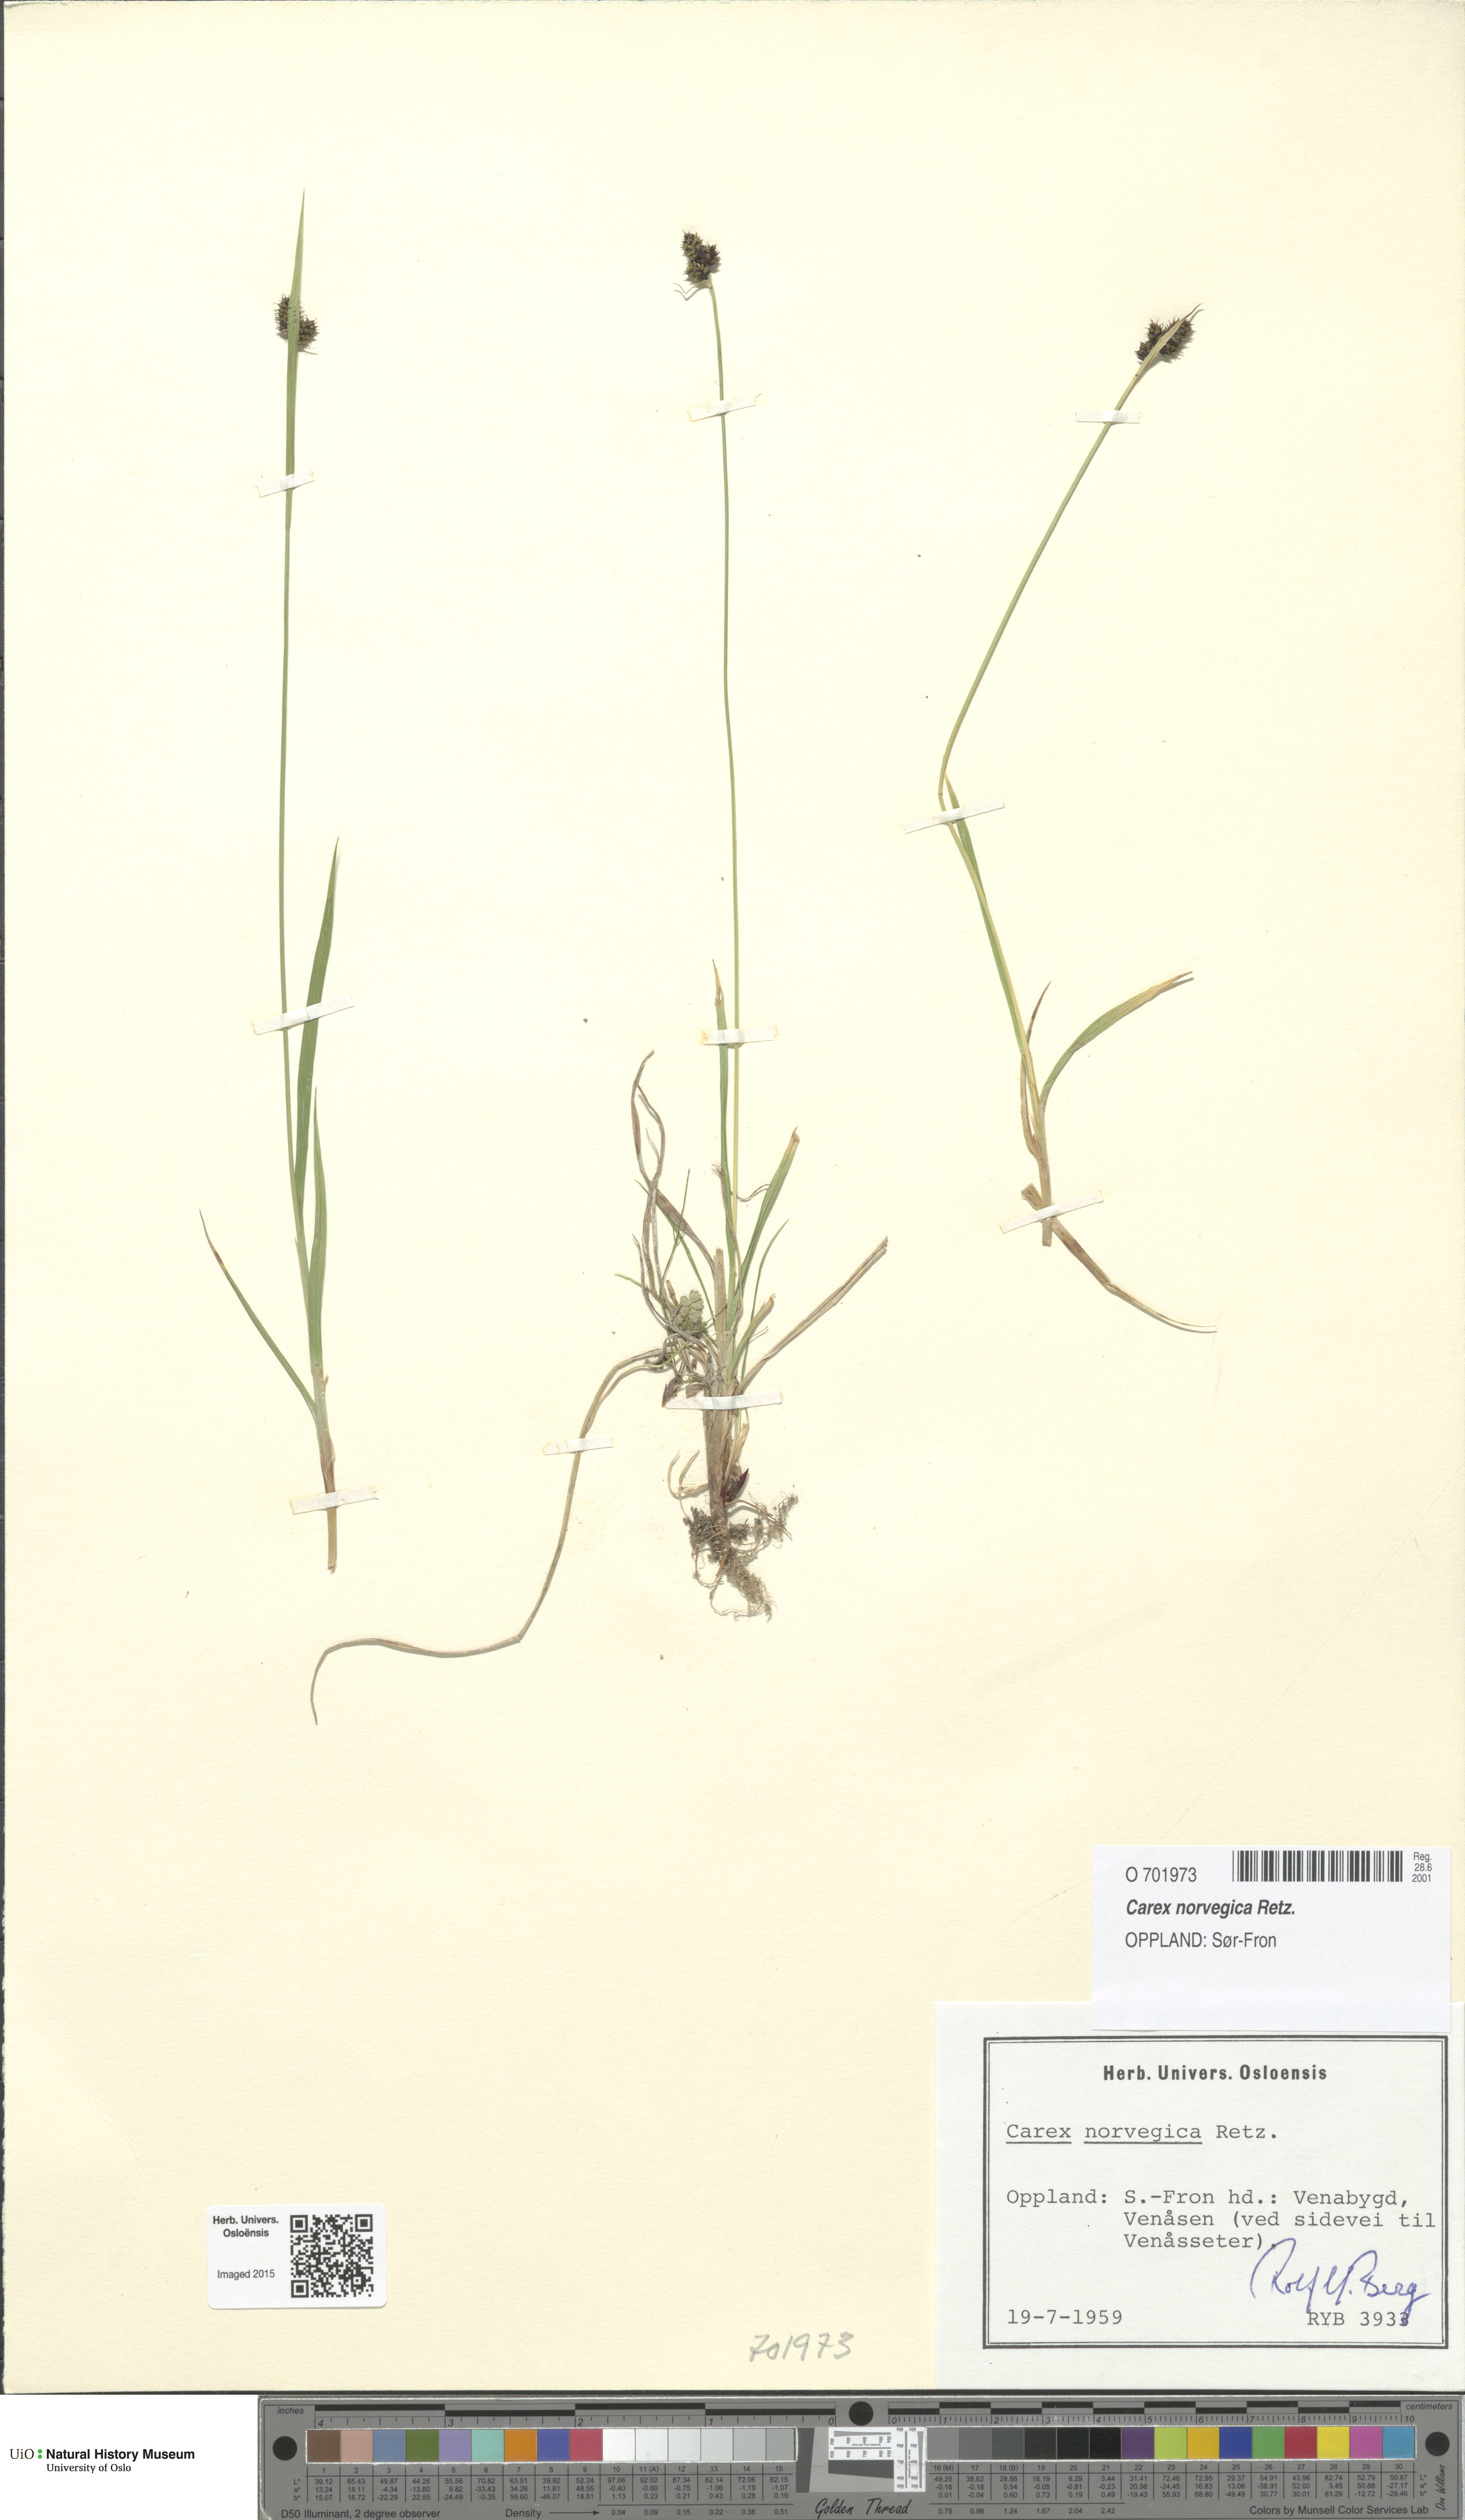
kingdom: Plantae
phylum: Tracheophyta
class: Liliopsida
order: Poales
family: Cyperaceae
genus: Carex
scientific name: Carex norvegica
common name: Close-headed alpine-sedge
